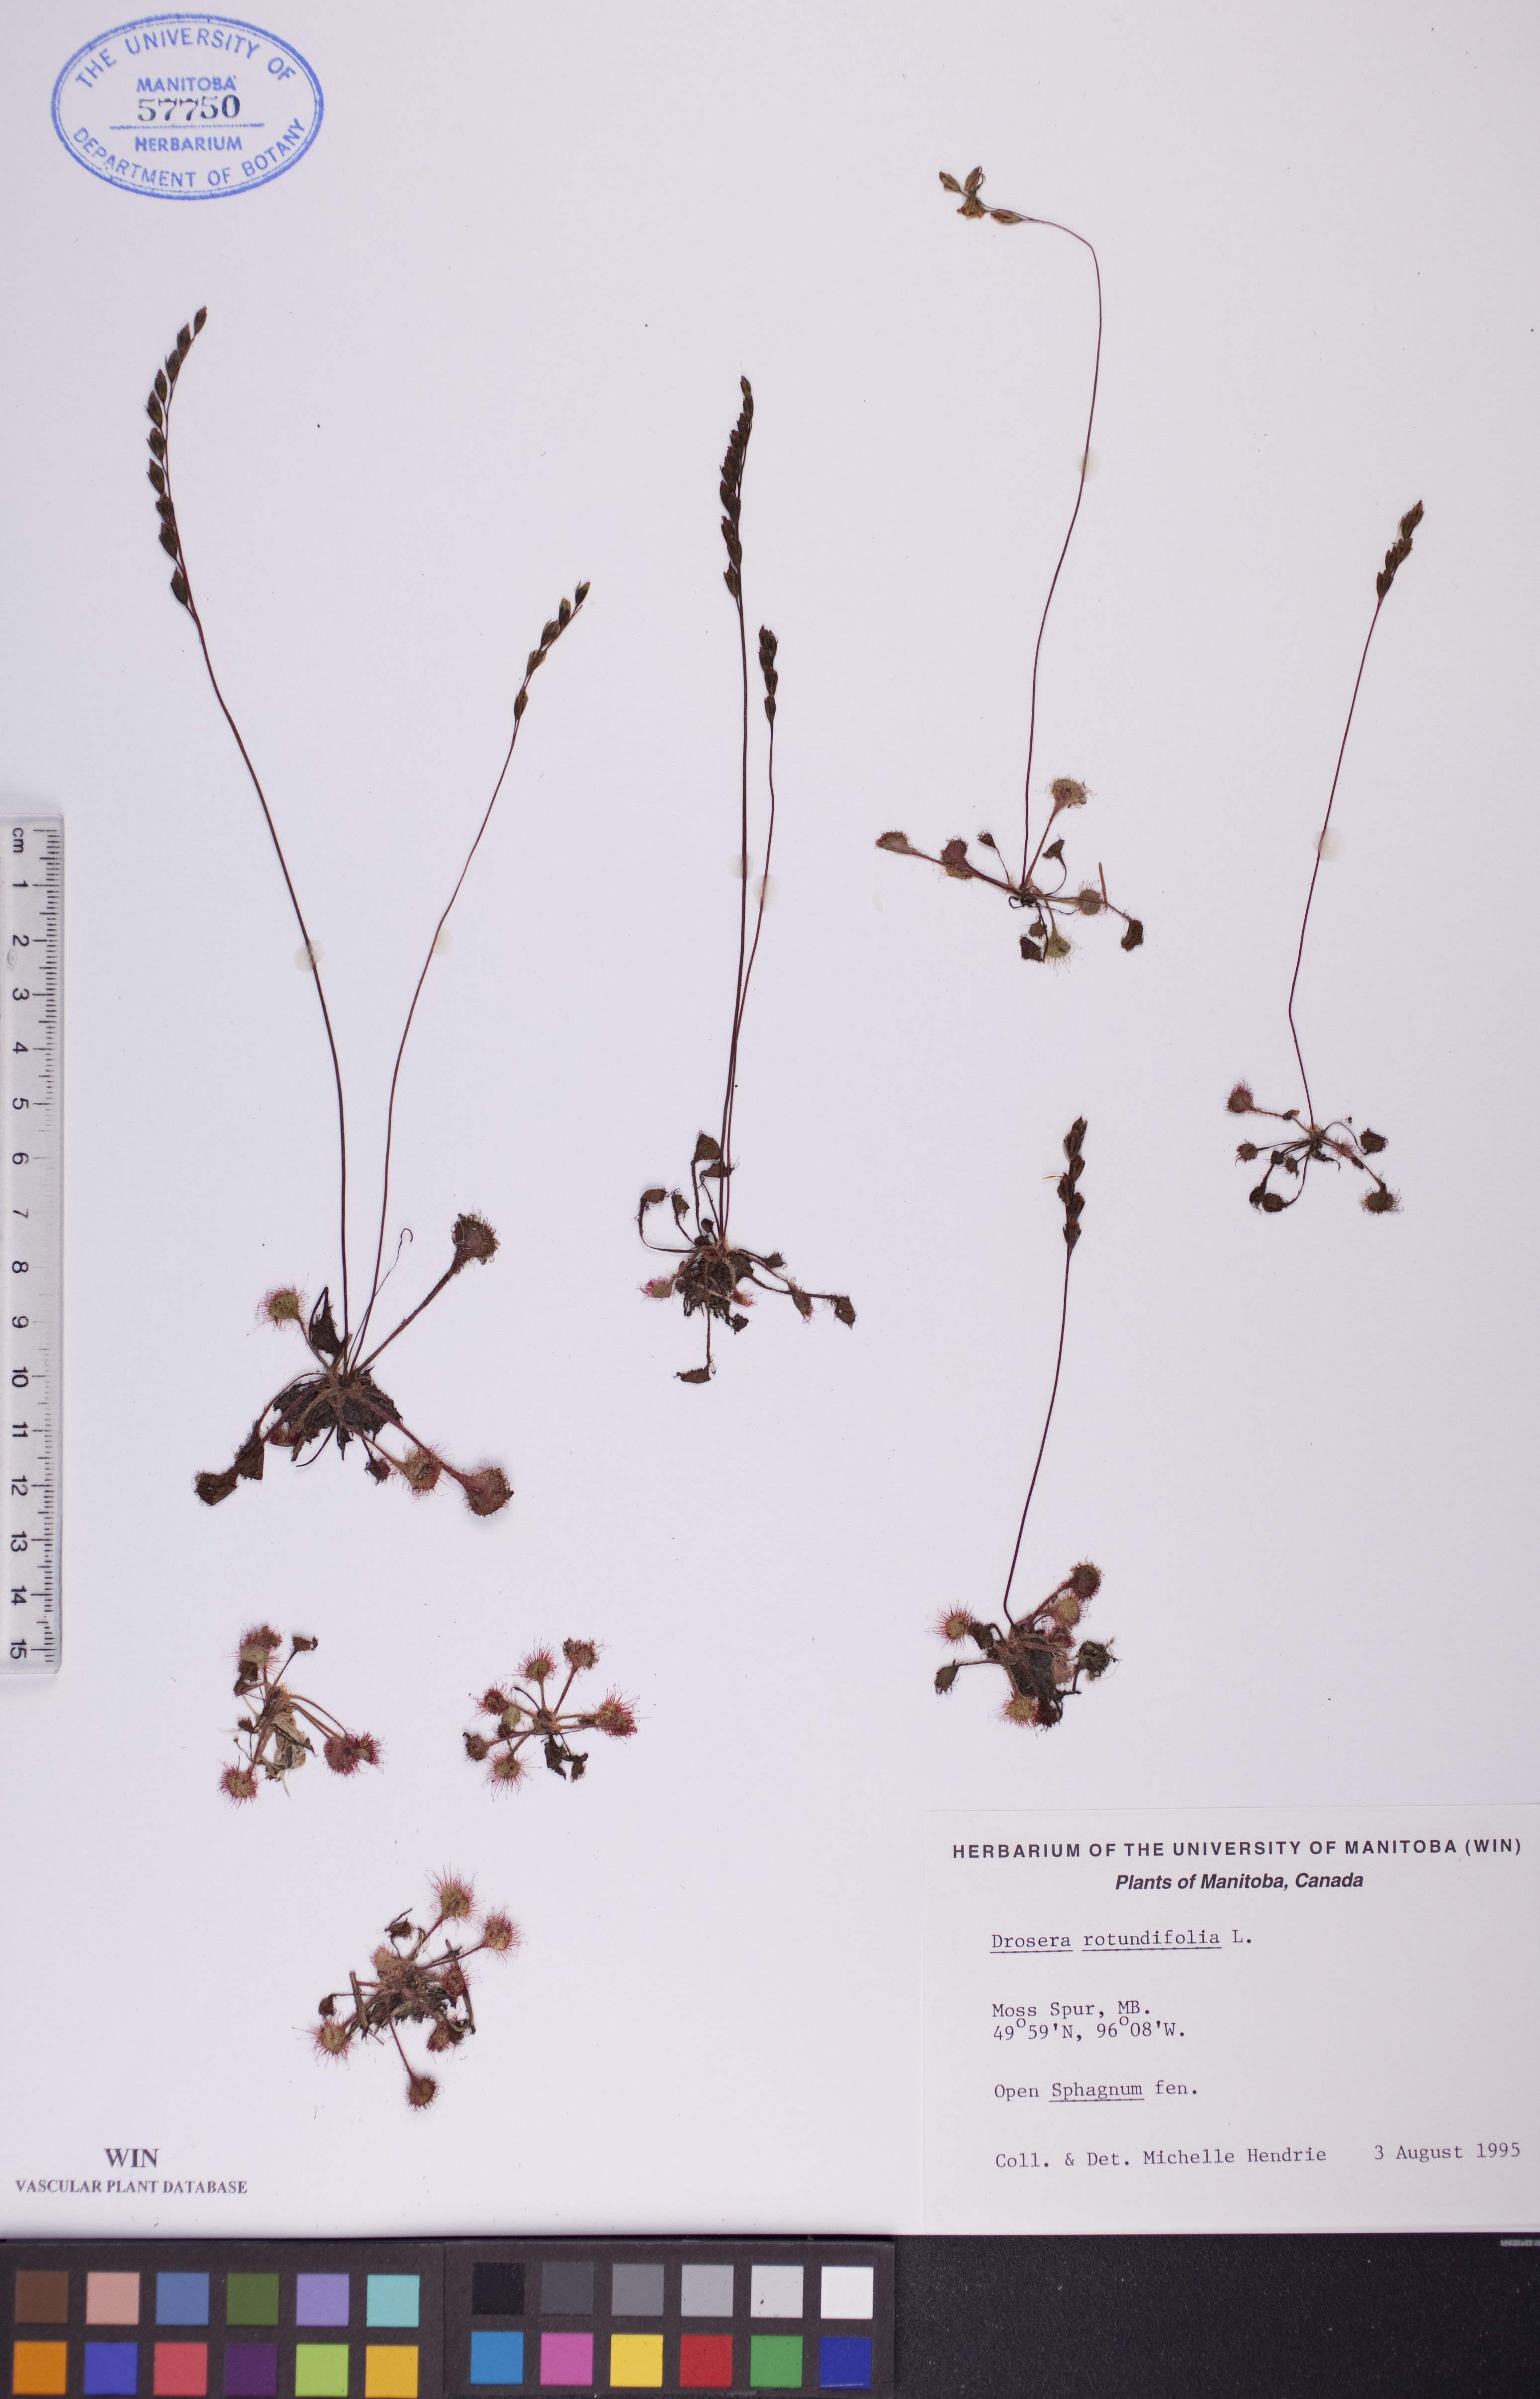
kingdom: Plantae
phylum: Tracheophyta
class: Magnoliopsida
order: Caryophyllales
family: Droseraceae
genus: Drosera
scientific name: Drosera rotundifolia
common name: Round-leaved sundew
